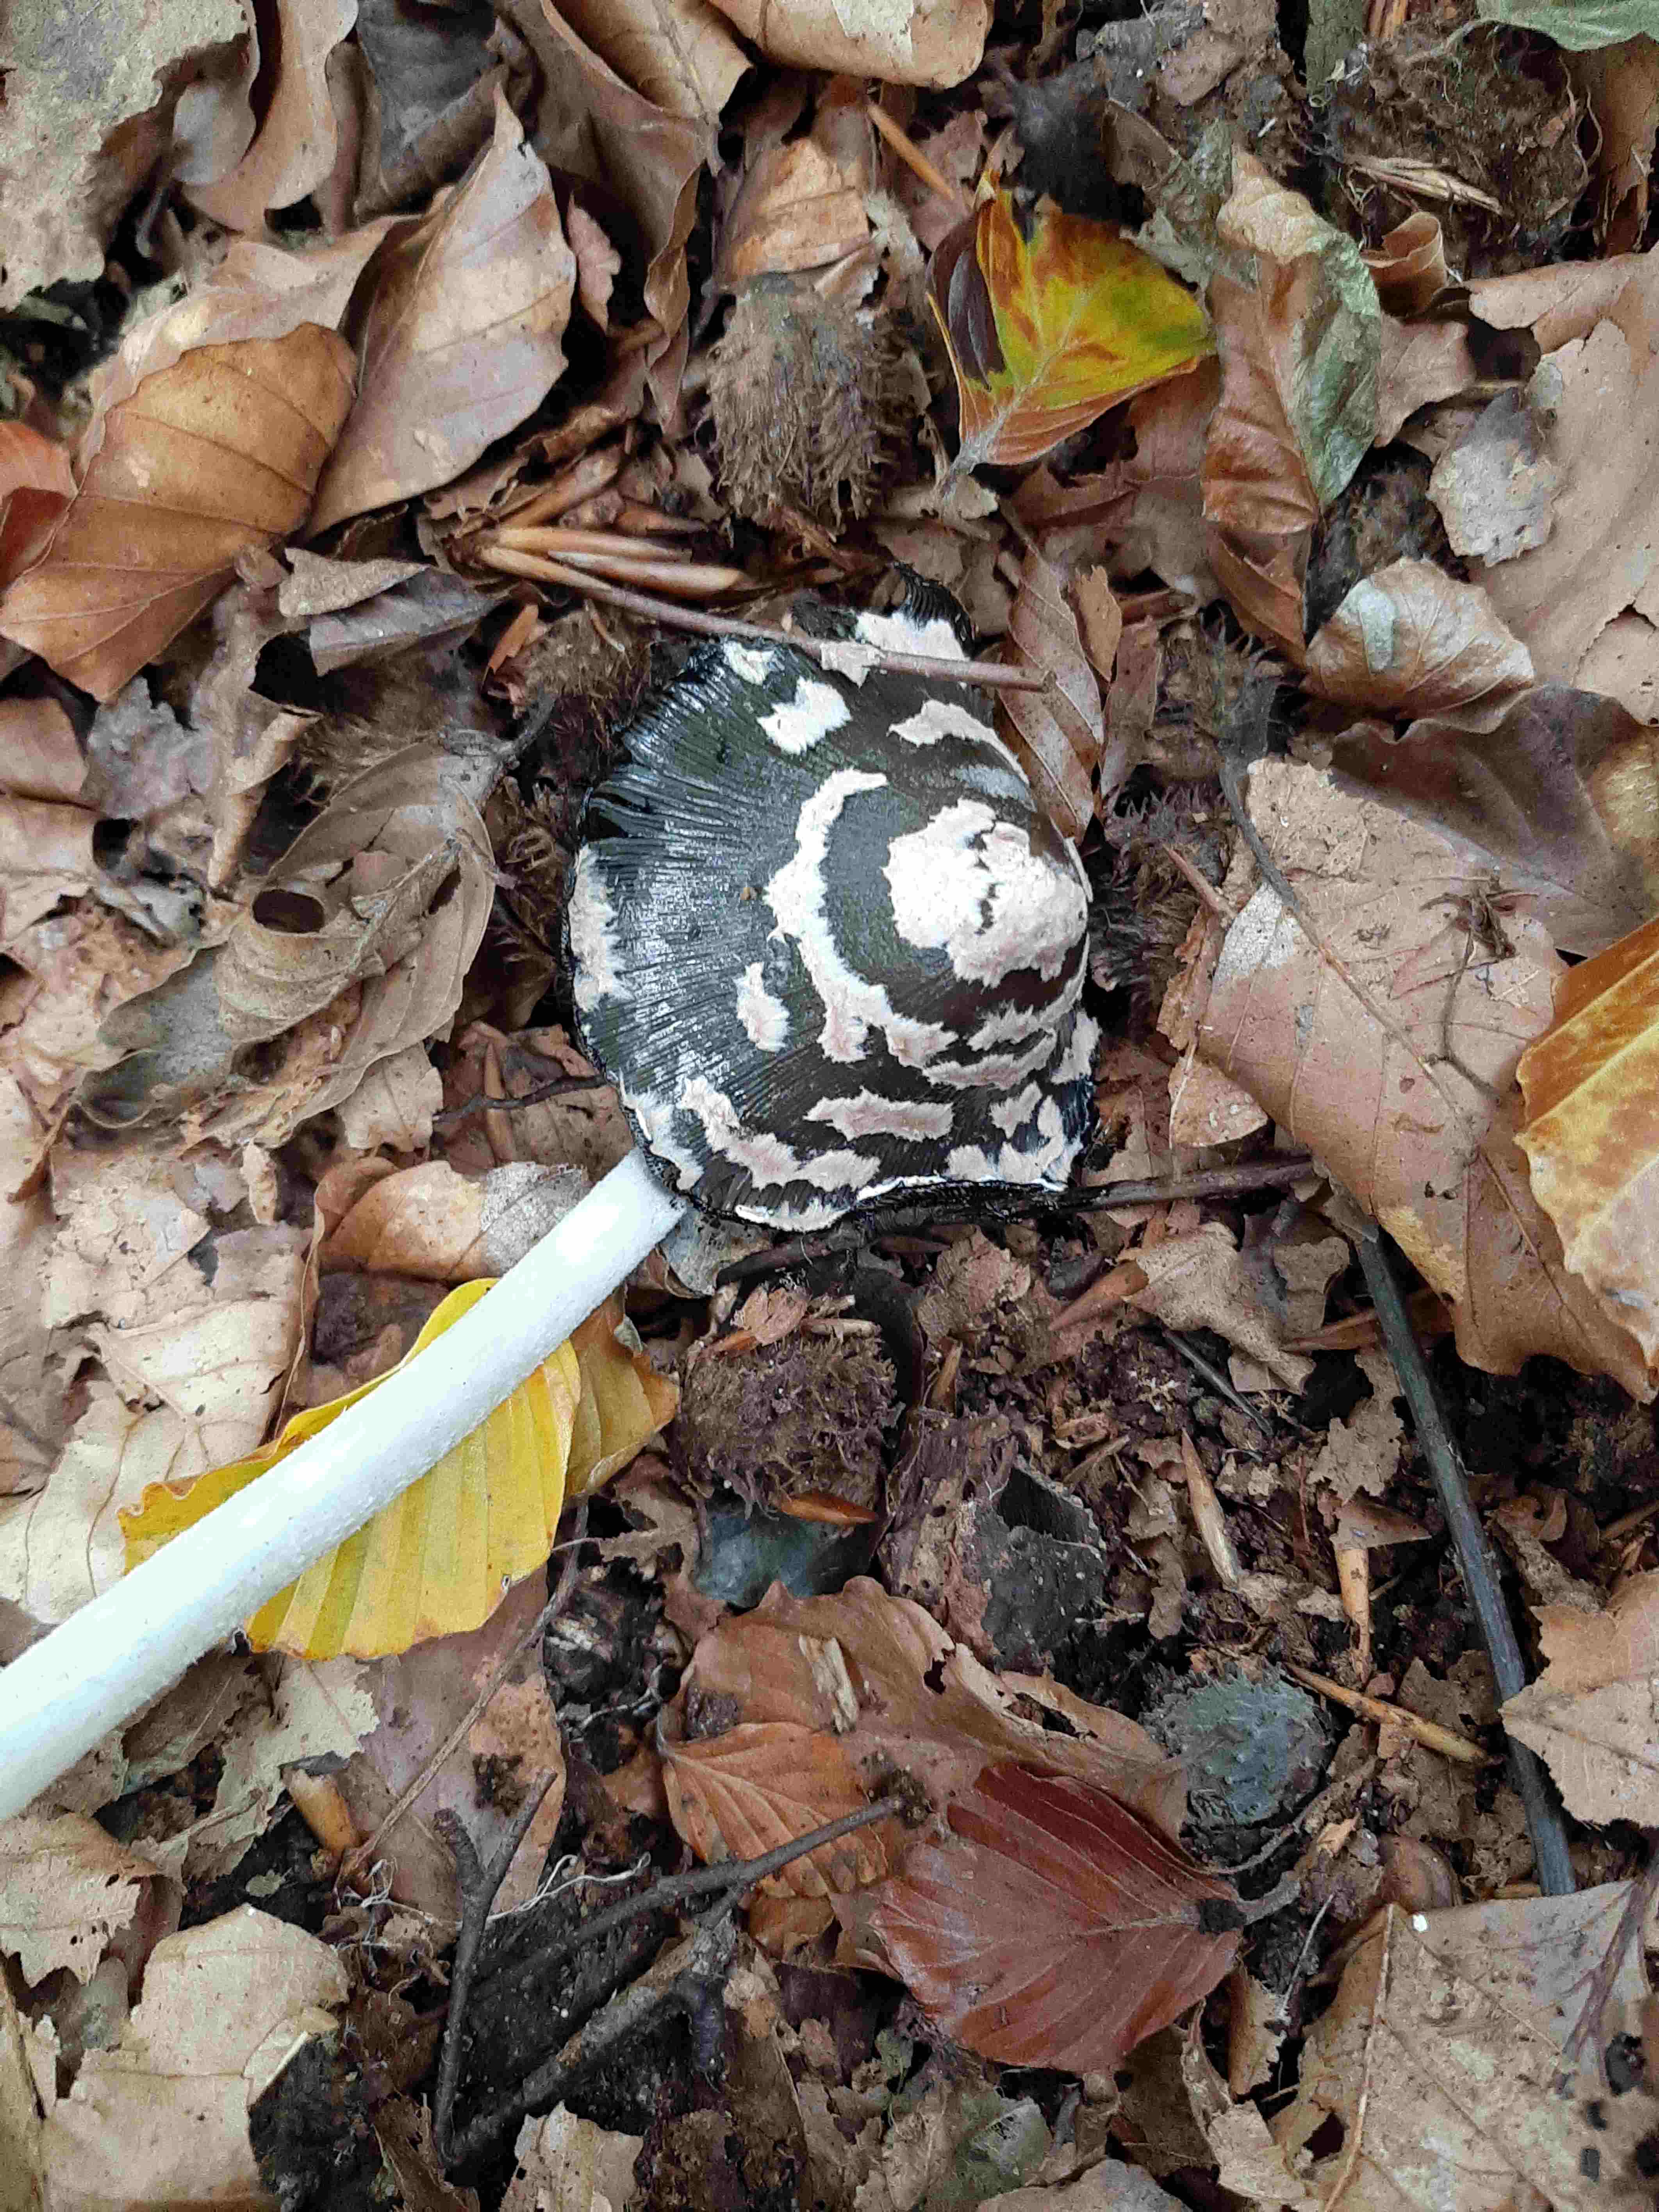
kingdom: Fungi
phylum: Basidiomycota
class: Agaricomycetes
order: Agaricales
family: Psathyrellaceae
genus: Coprinopsis
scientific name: Coprinopsis picacea
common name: skade-blækhat
